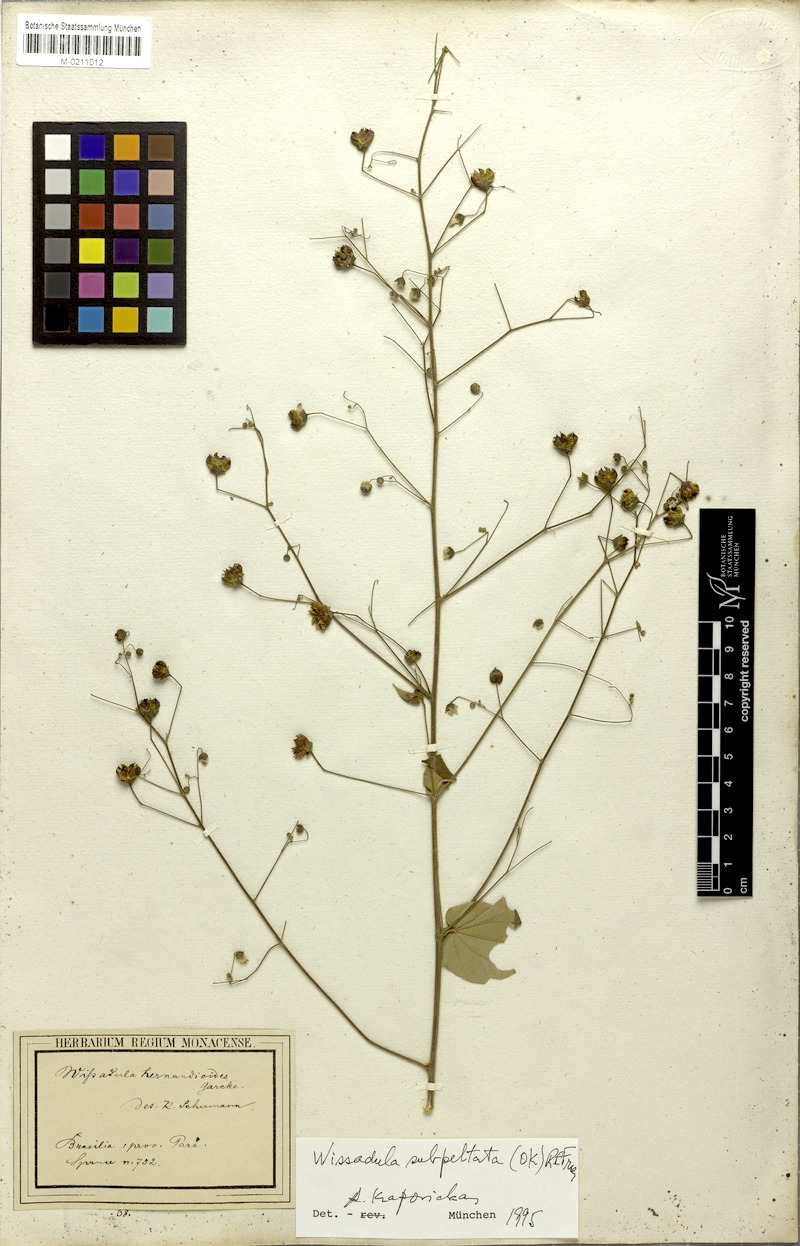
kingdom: Plantae
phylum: Tracheophyta
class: Magnoliopsida
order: Malvales
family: Malvaceae
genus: Wissadula
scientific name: Wissadula subpeltata
